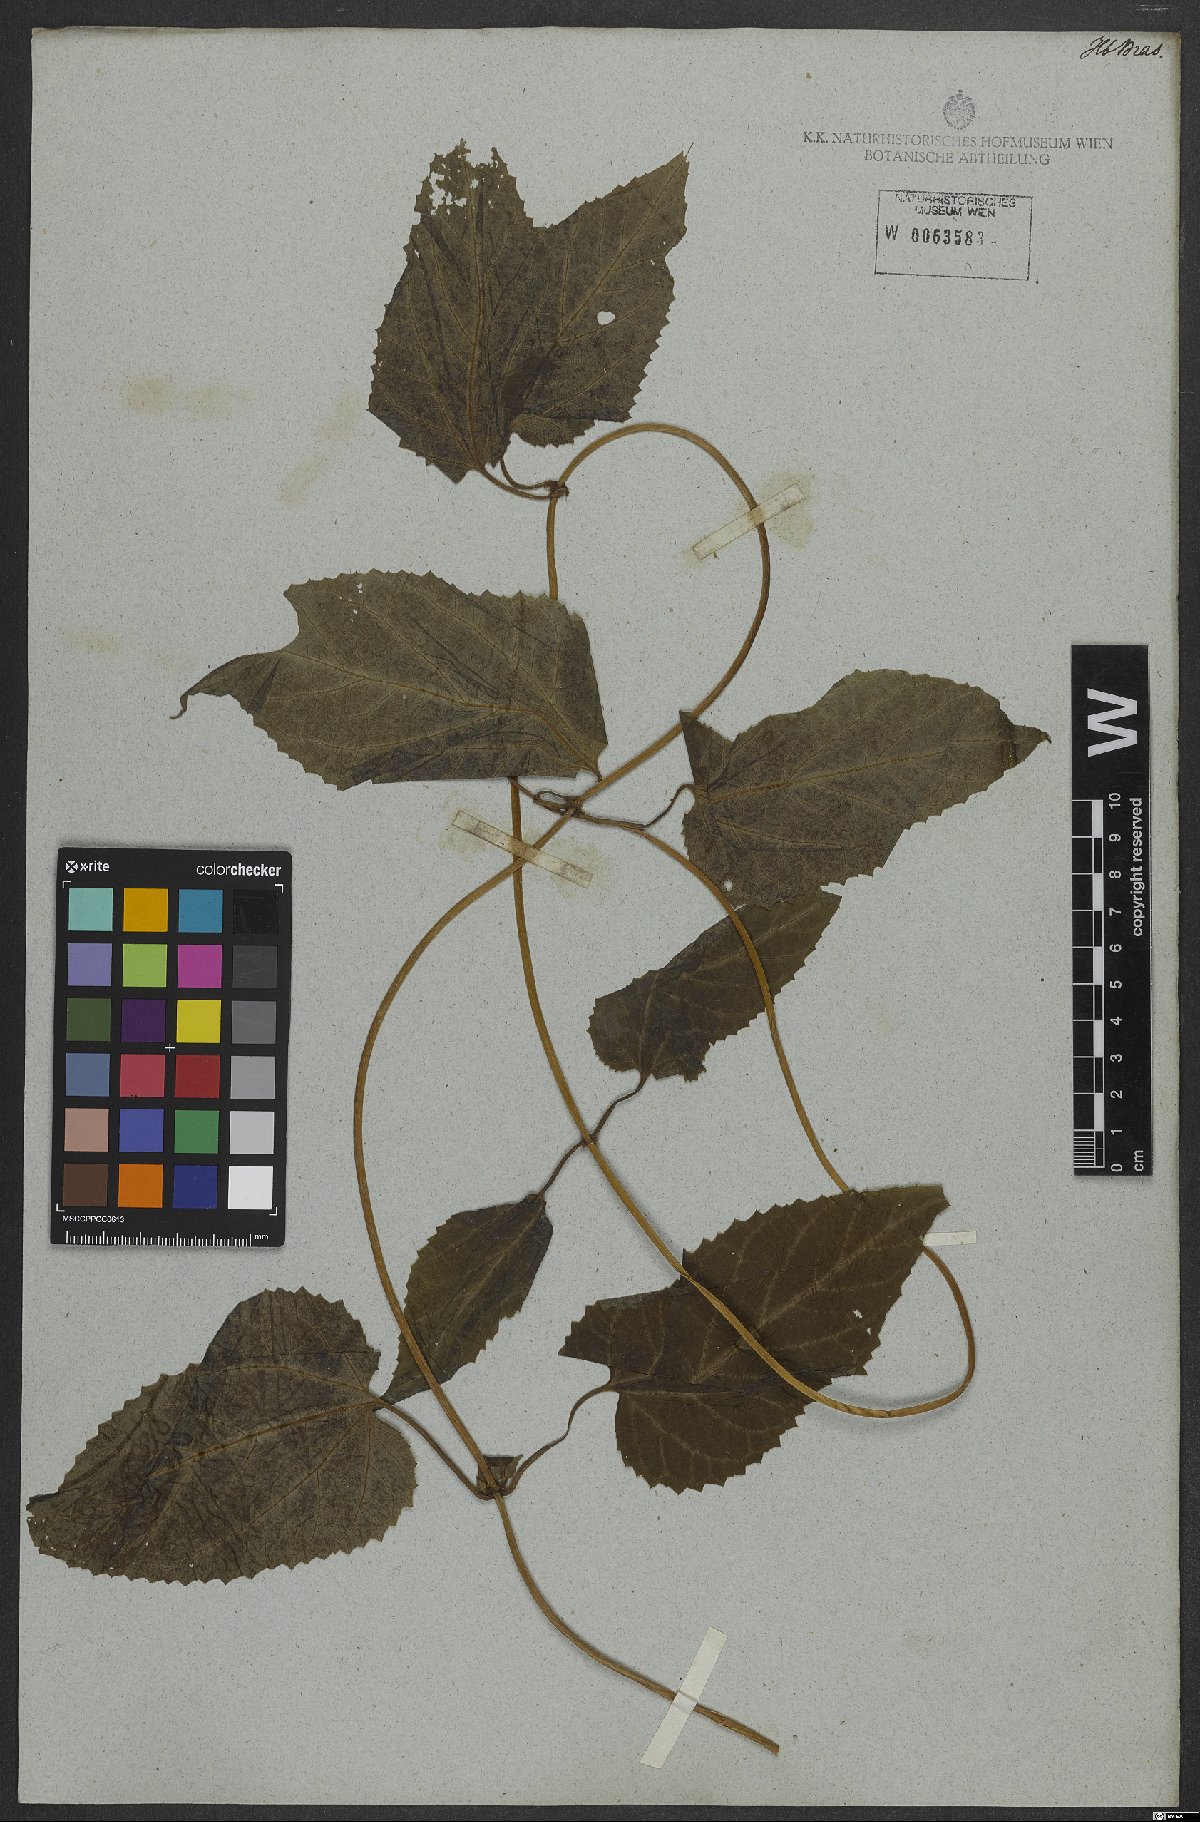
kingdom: Plantae
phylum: Tracheophyta
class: Magnoliopsida
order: Asterales
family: Asteraceae
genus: Mikania
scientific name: Mikania
